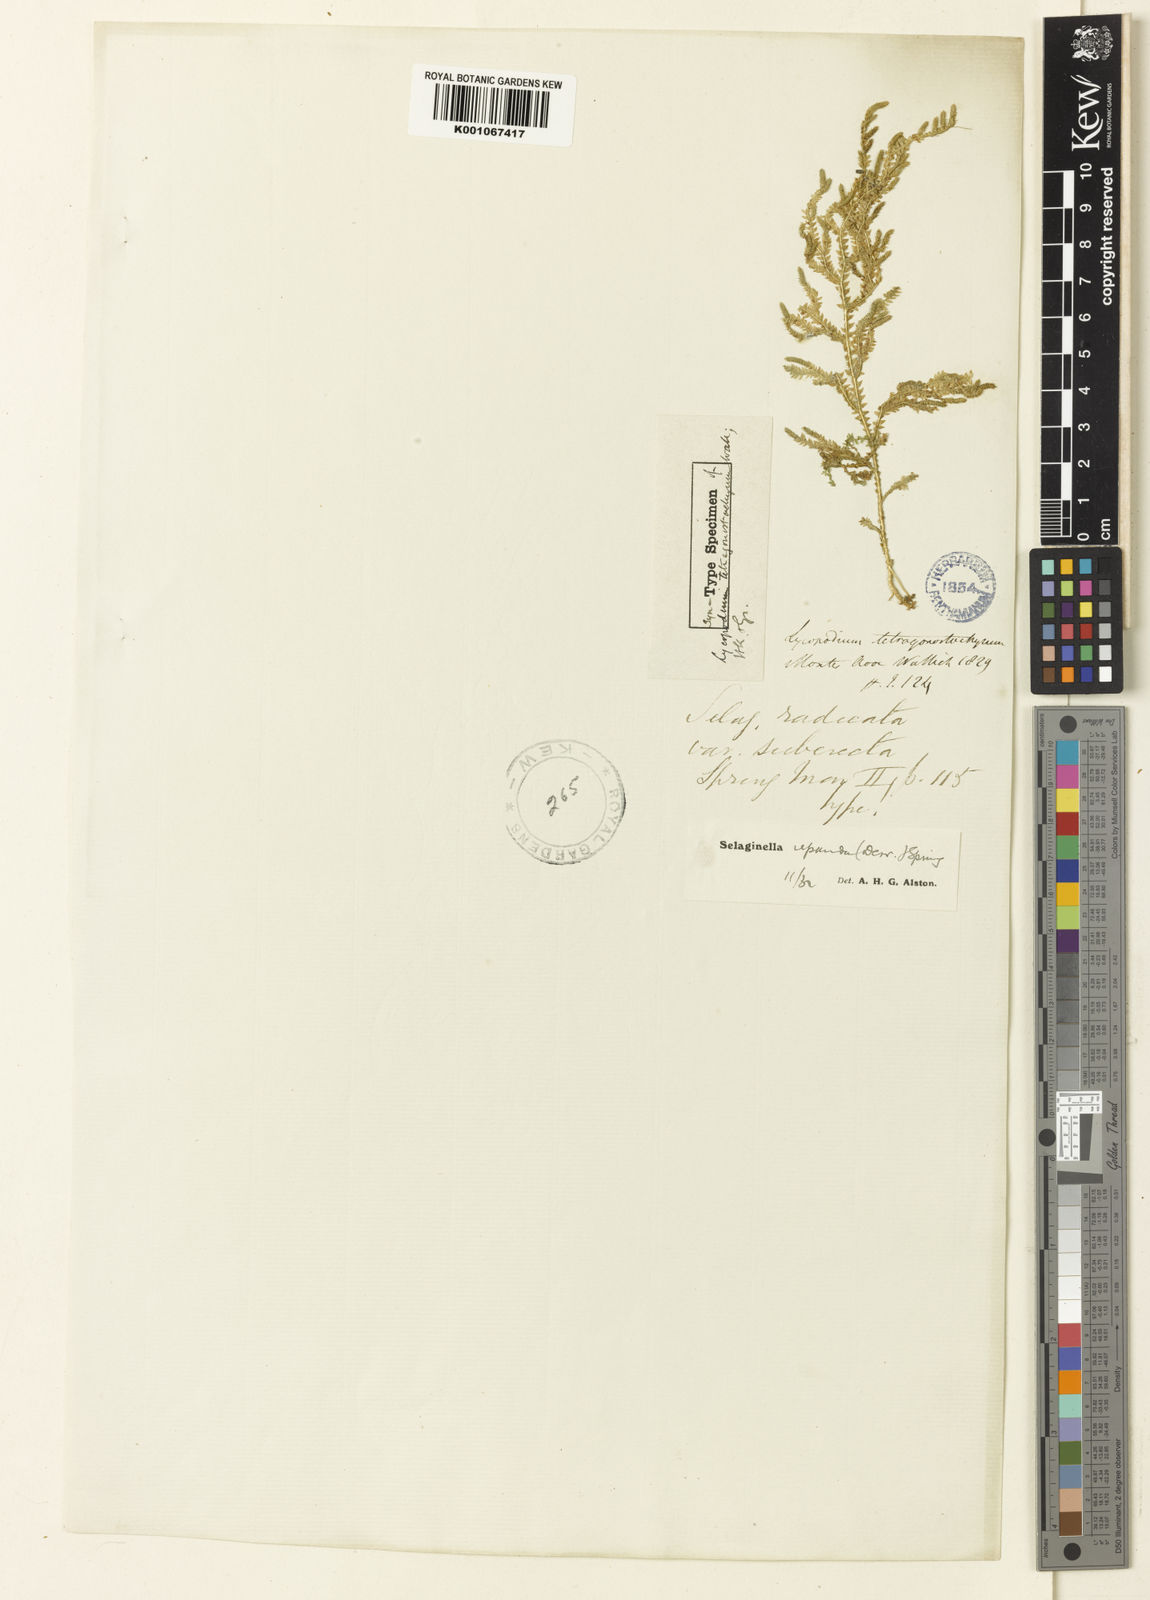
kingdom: Plantae
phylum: Tracheophyta
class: Lycopodiopsida
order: Selaginellales
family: Selaginellaceae
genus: Selaginella
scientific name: Selaginella repanda
